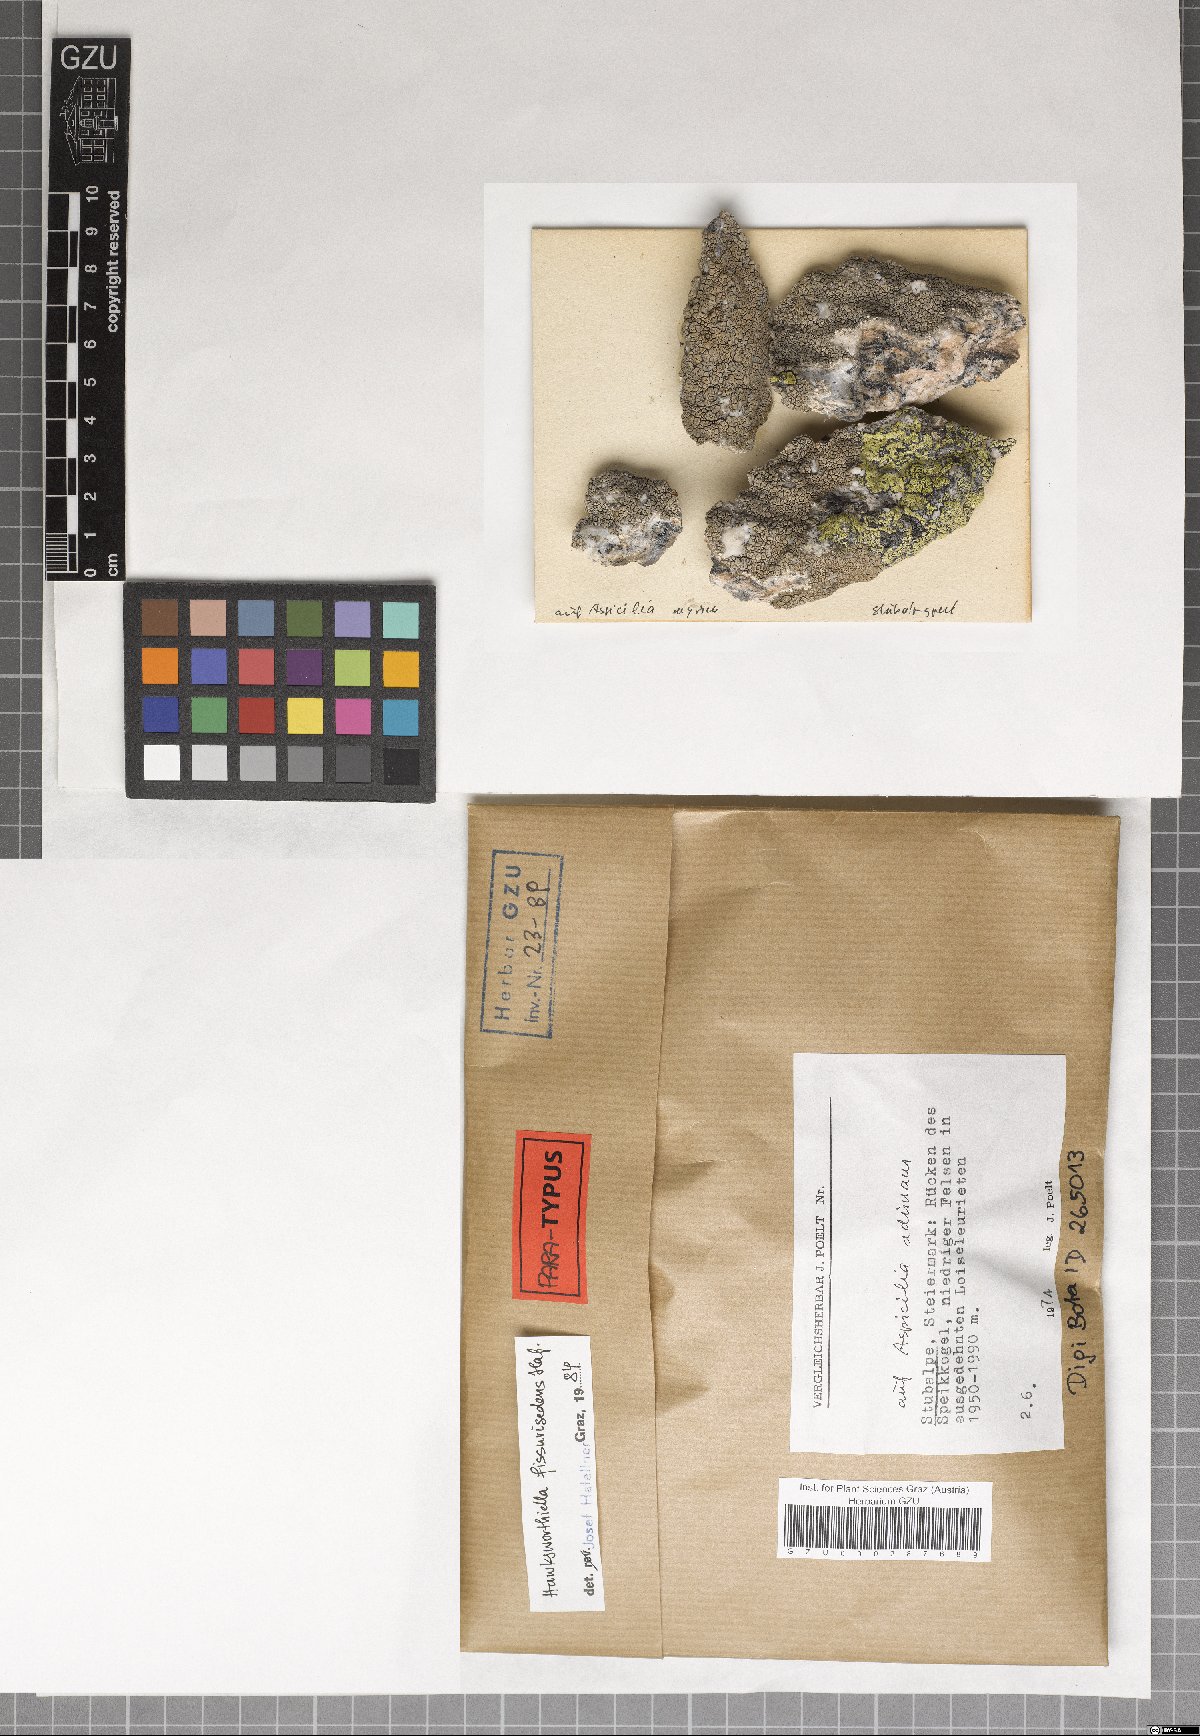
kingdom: Fungi
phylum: Ascomycota
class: Eurotiomycetes
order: Verrucariales
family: Adelococcaceae
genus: Sagediopsis
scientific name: Sagediopsis fissurisedens
